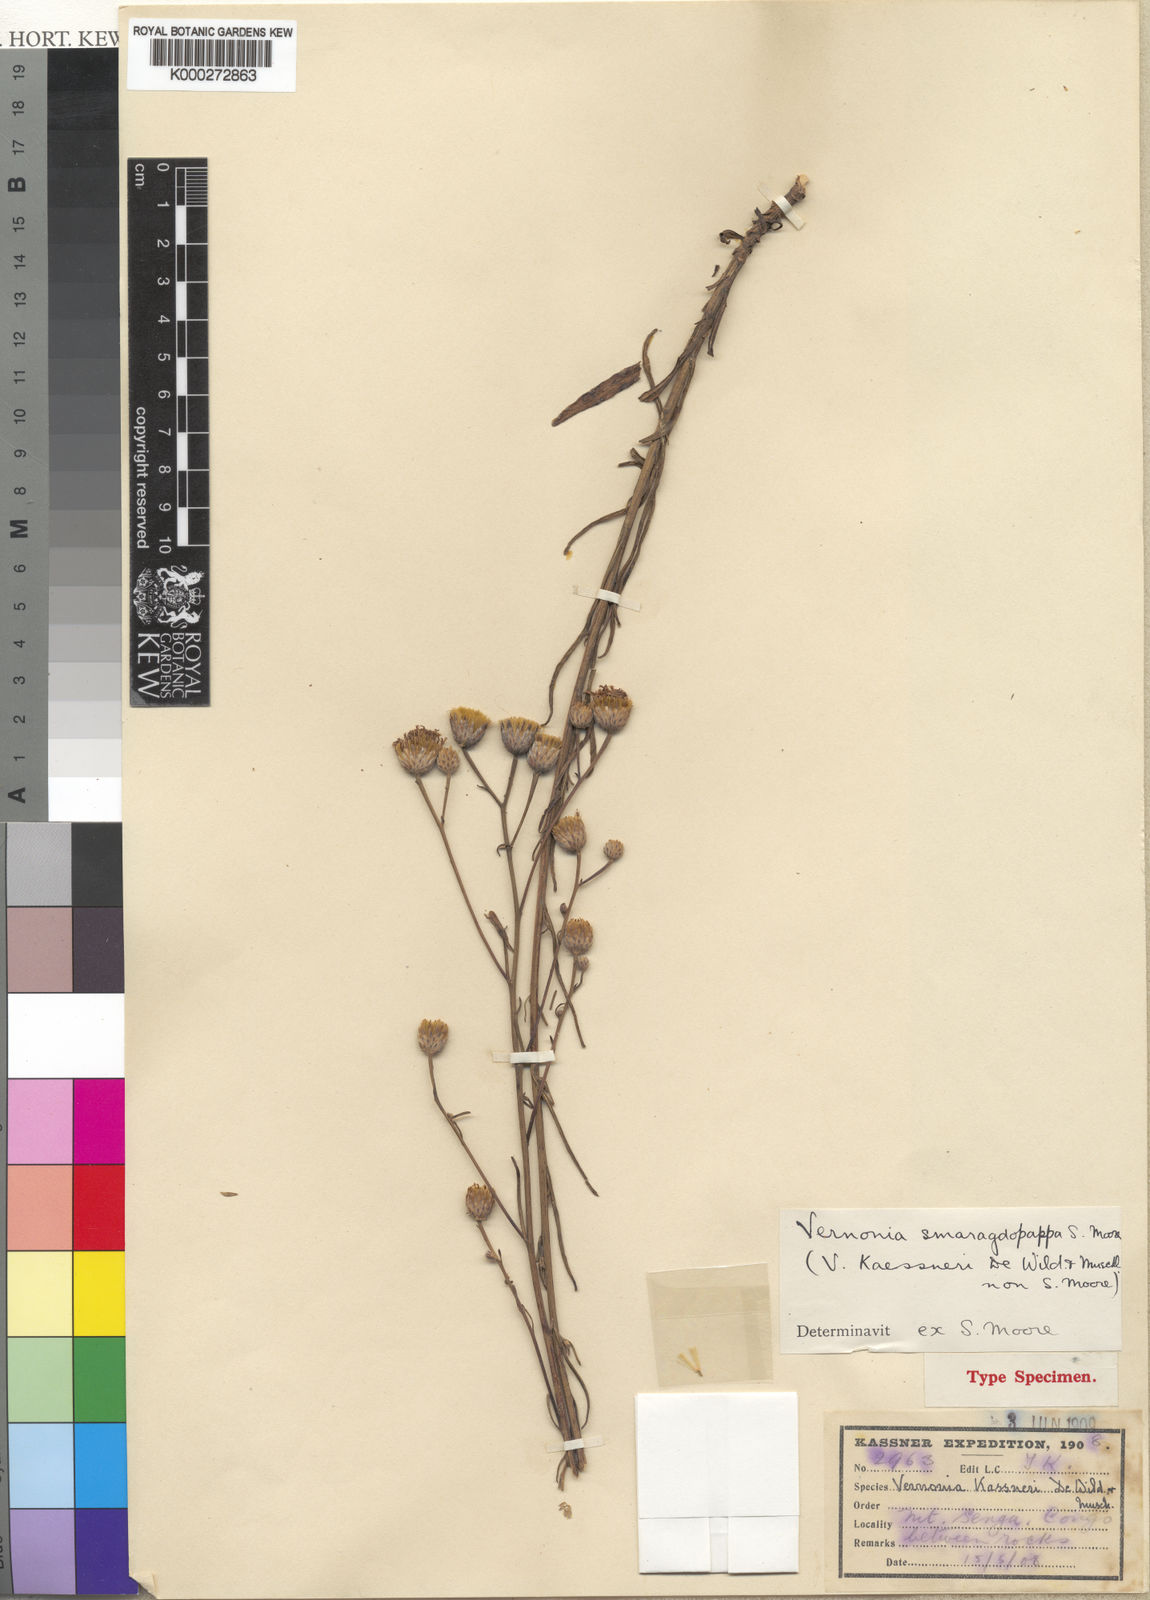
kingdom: Plantae
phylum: Tracheophyta
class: Magnoliopsida
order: Asterales
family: Asteraceae
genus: Crystallopollen
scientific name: Crystallopollen chloropappum
